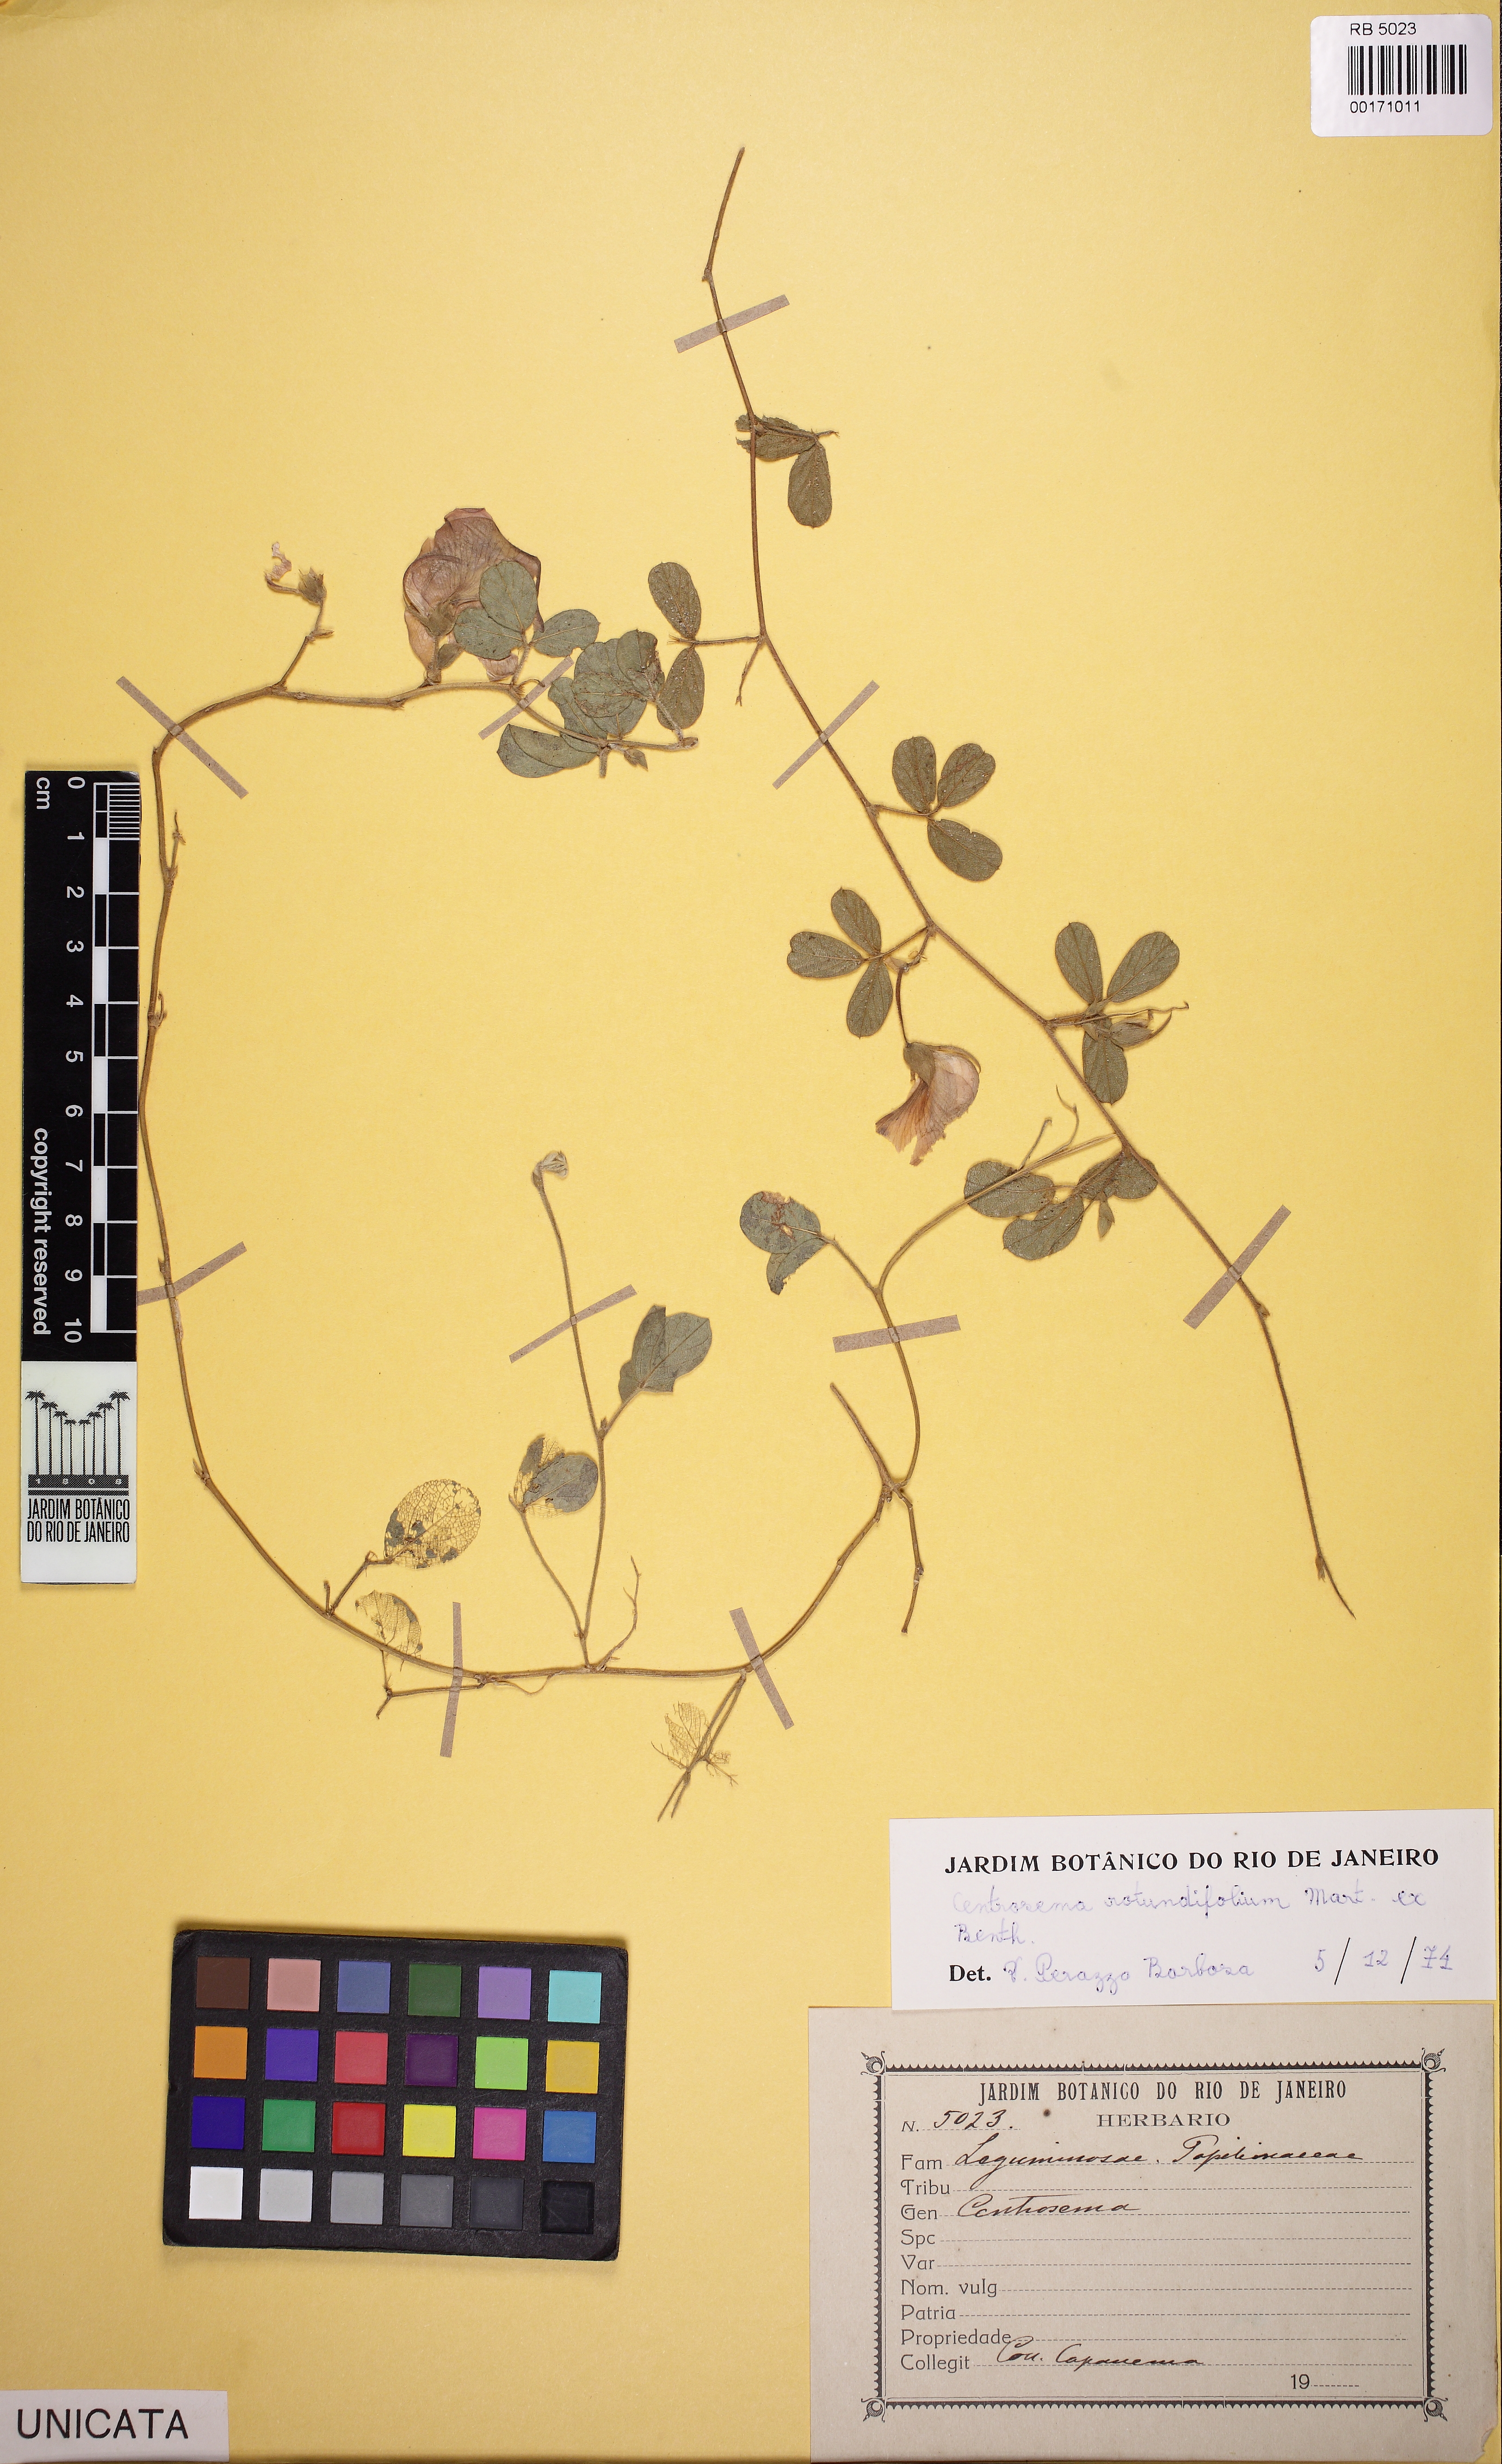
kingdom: Plantae
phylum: Tracheophyta
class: Magnoliopsida
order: Fabales
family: Fabaceae
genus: Centrosema
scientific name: Centrosema rotundifolium
